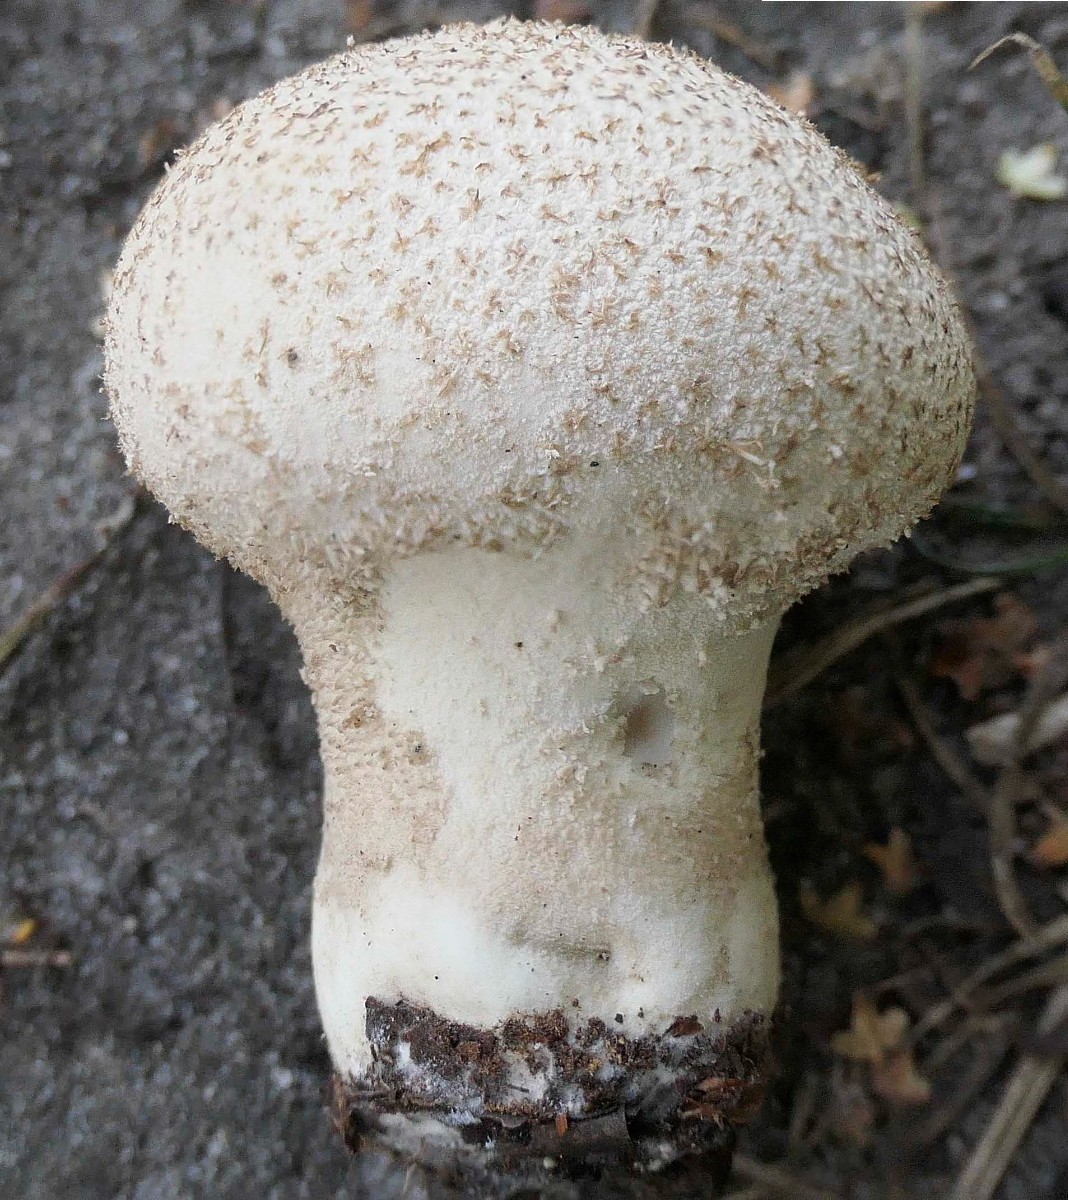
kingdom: Fungi
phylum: Basidiomycota
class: Agaricomycetes
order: Agaricales
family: Lycoperdaceae
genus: Lycoperdon
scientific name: Lycoperdon excipuliforme
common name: højstokket støvbold
